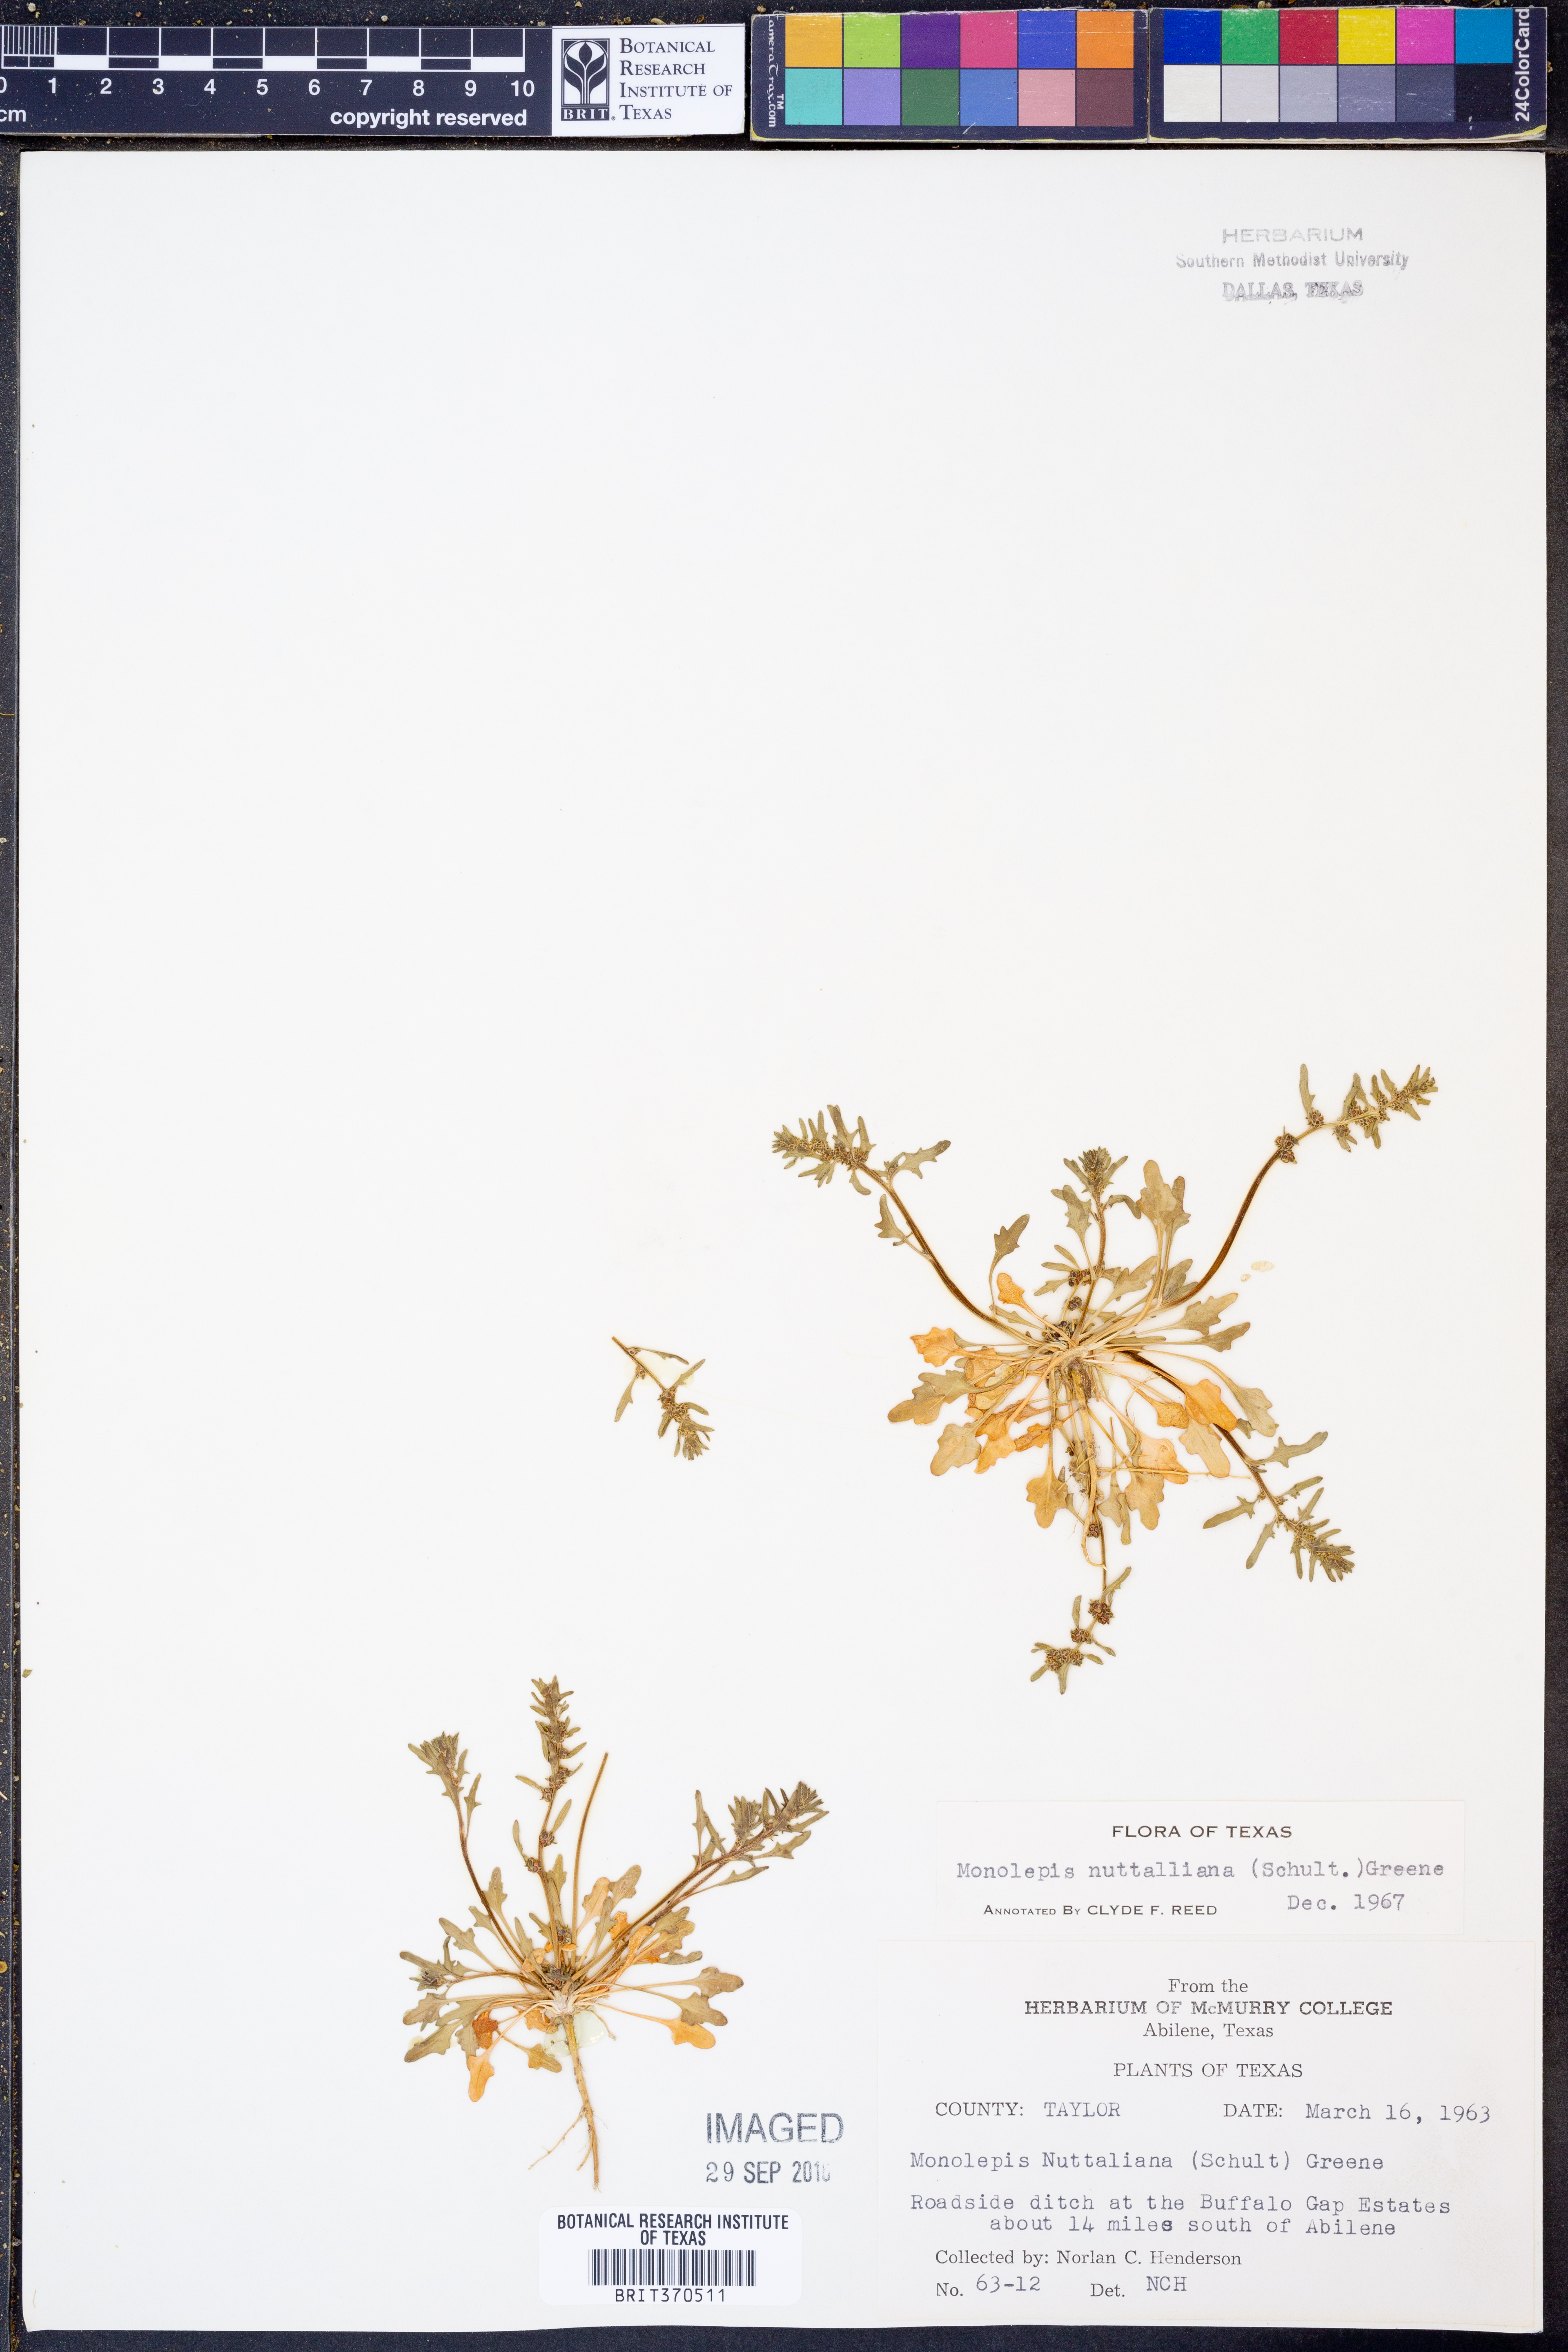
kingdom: Plantae
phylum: Tracheophyta
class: Magnoliopsida
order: Caryophyllales
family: Amaranthaceae
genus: Blitum
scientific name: Blitum nuttallianum
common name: Poverty-weed
